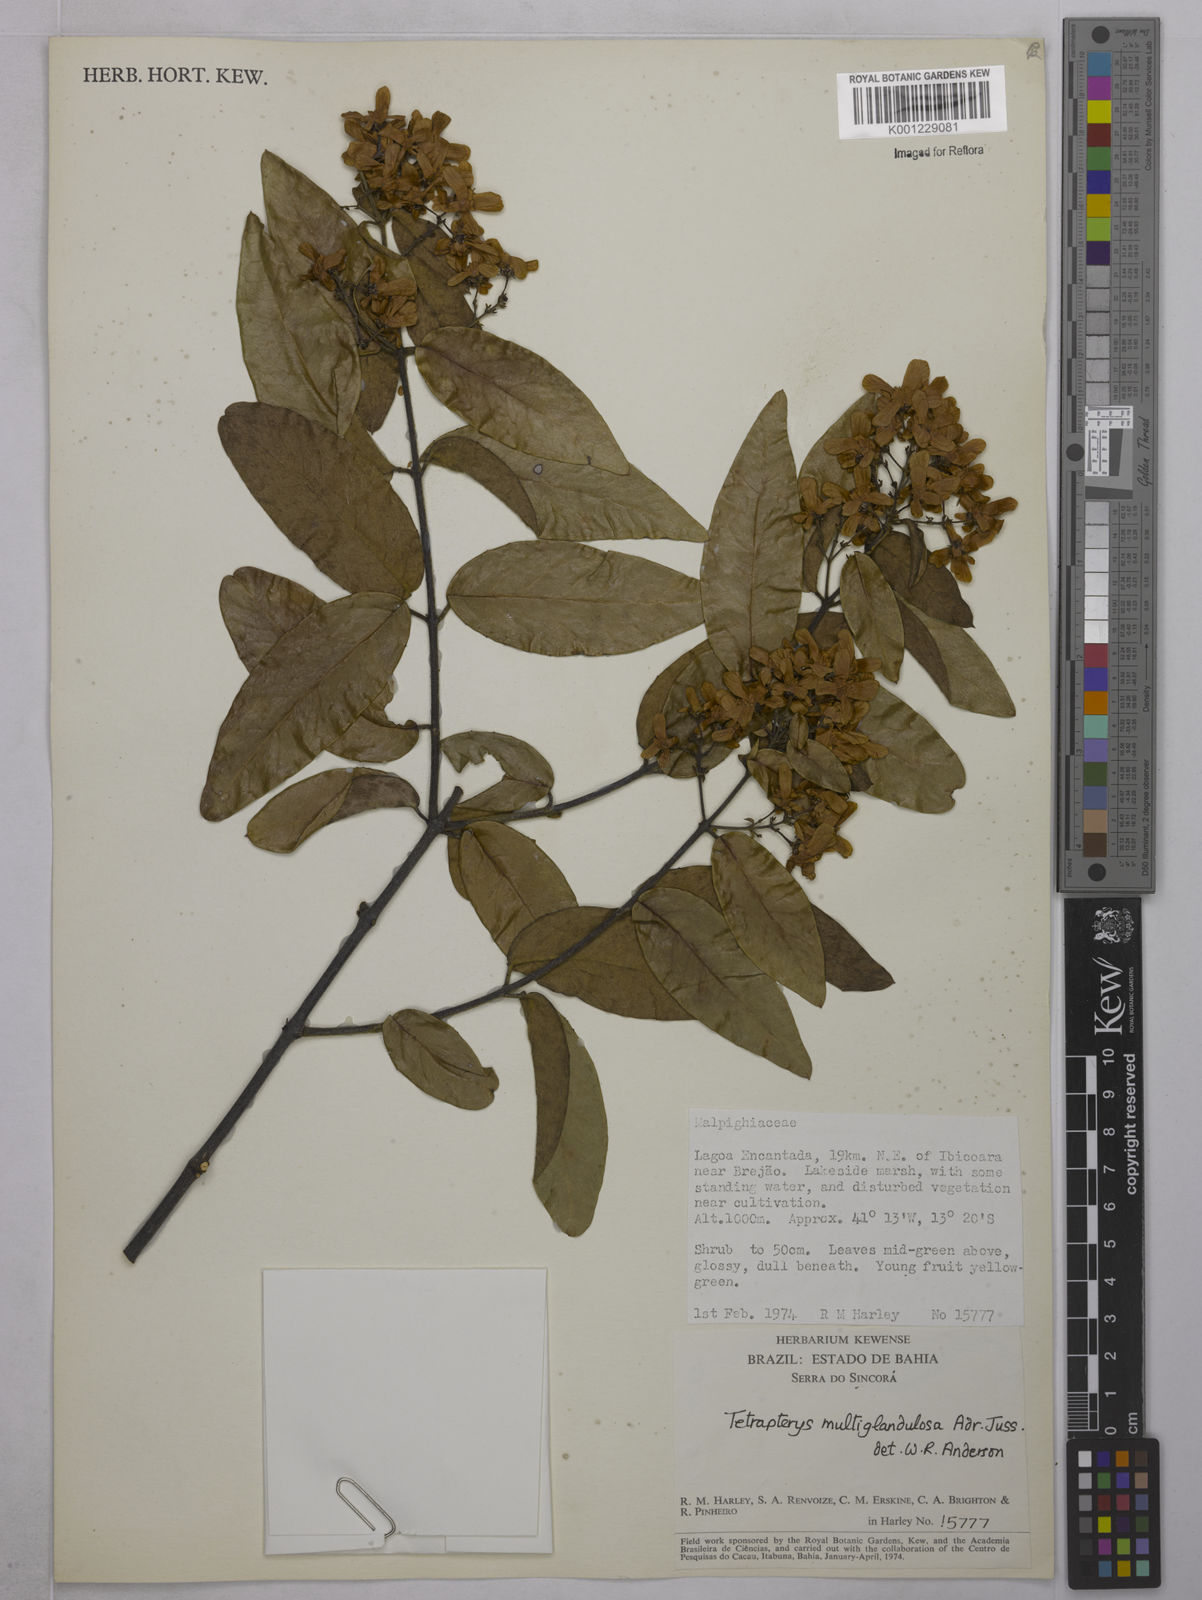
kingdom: Plantae
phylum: Tracheophyta
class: Magnoliopsida
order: Malpighiales
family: Malpighiaceae
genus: Niedenzuella
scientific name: Niedenzuella multiglandulosa
